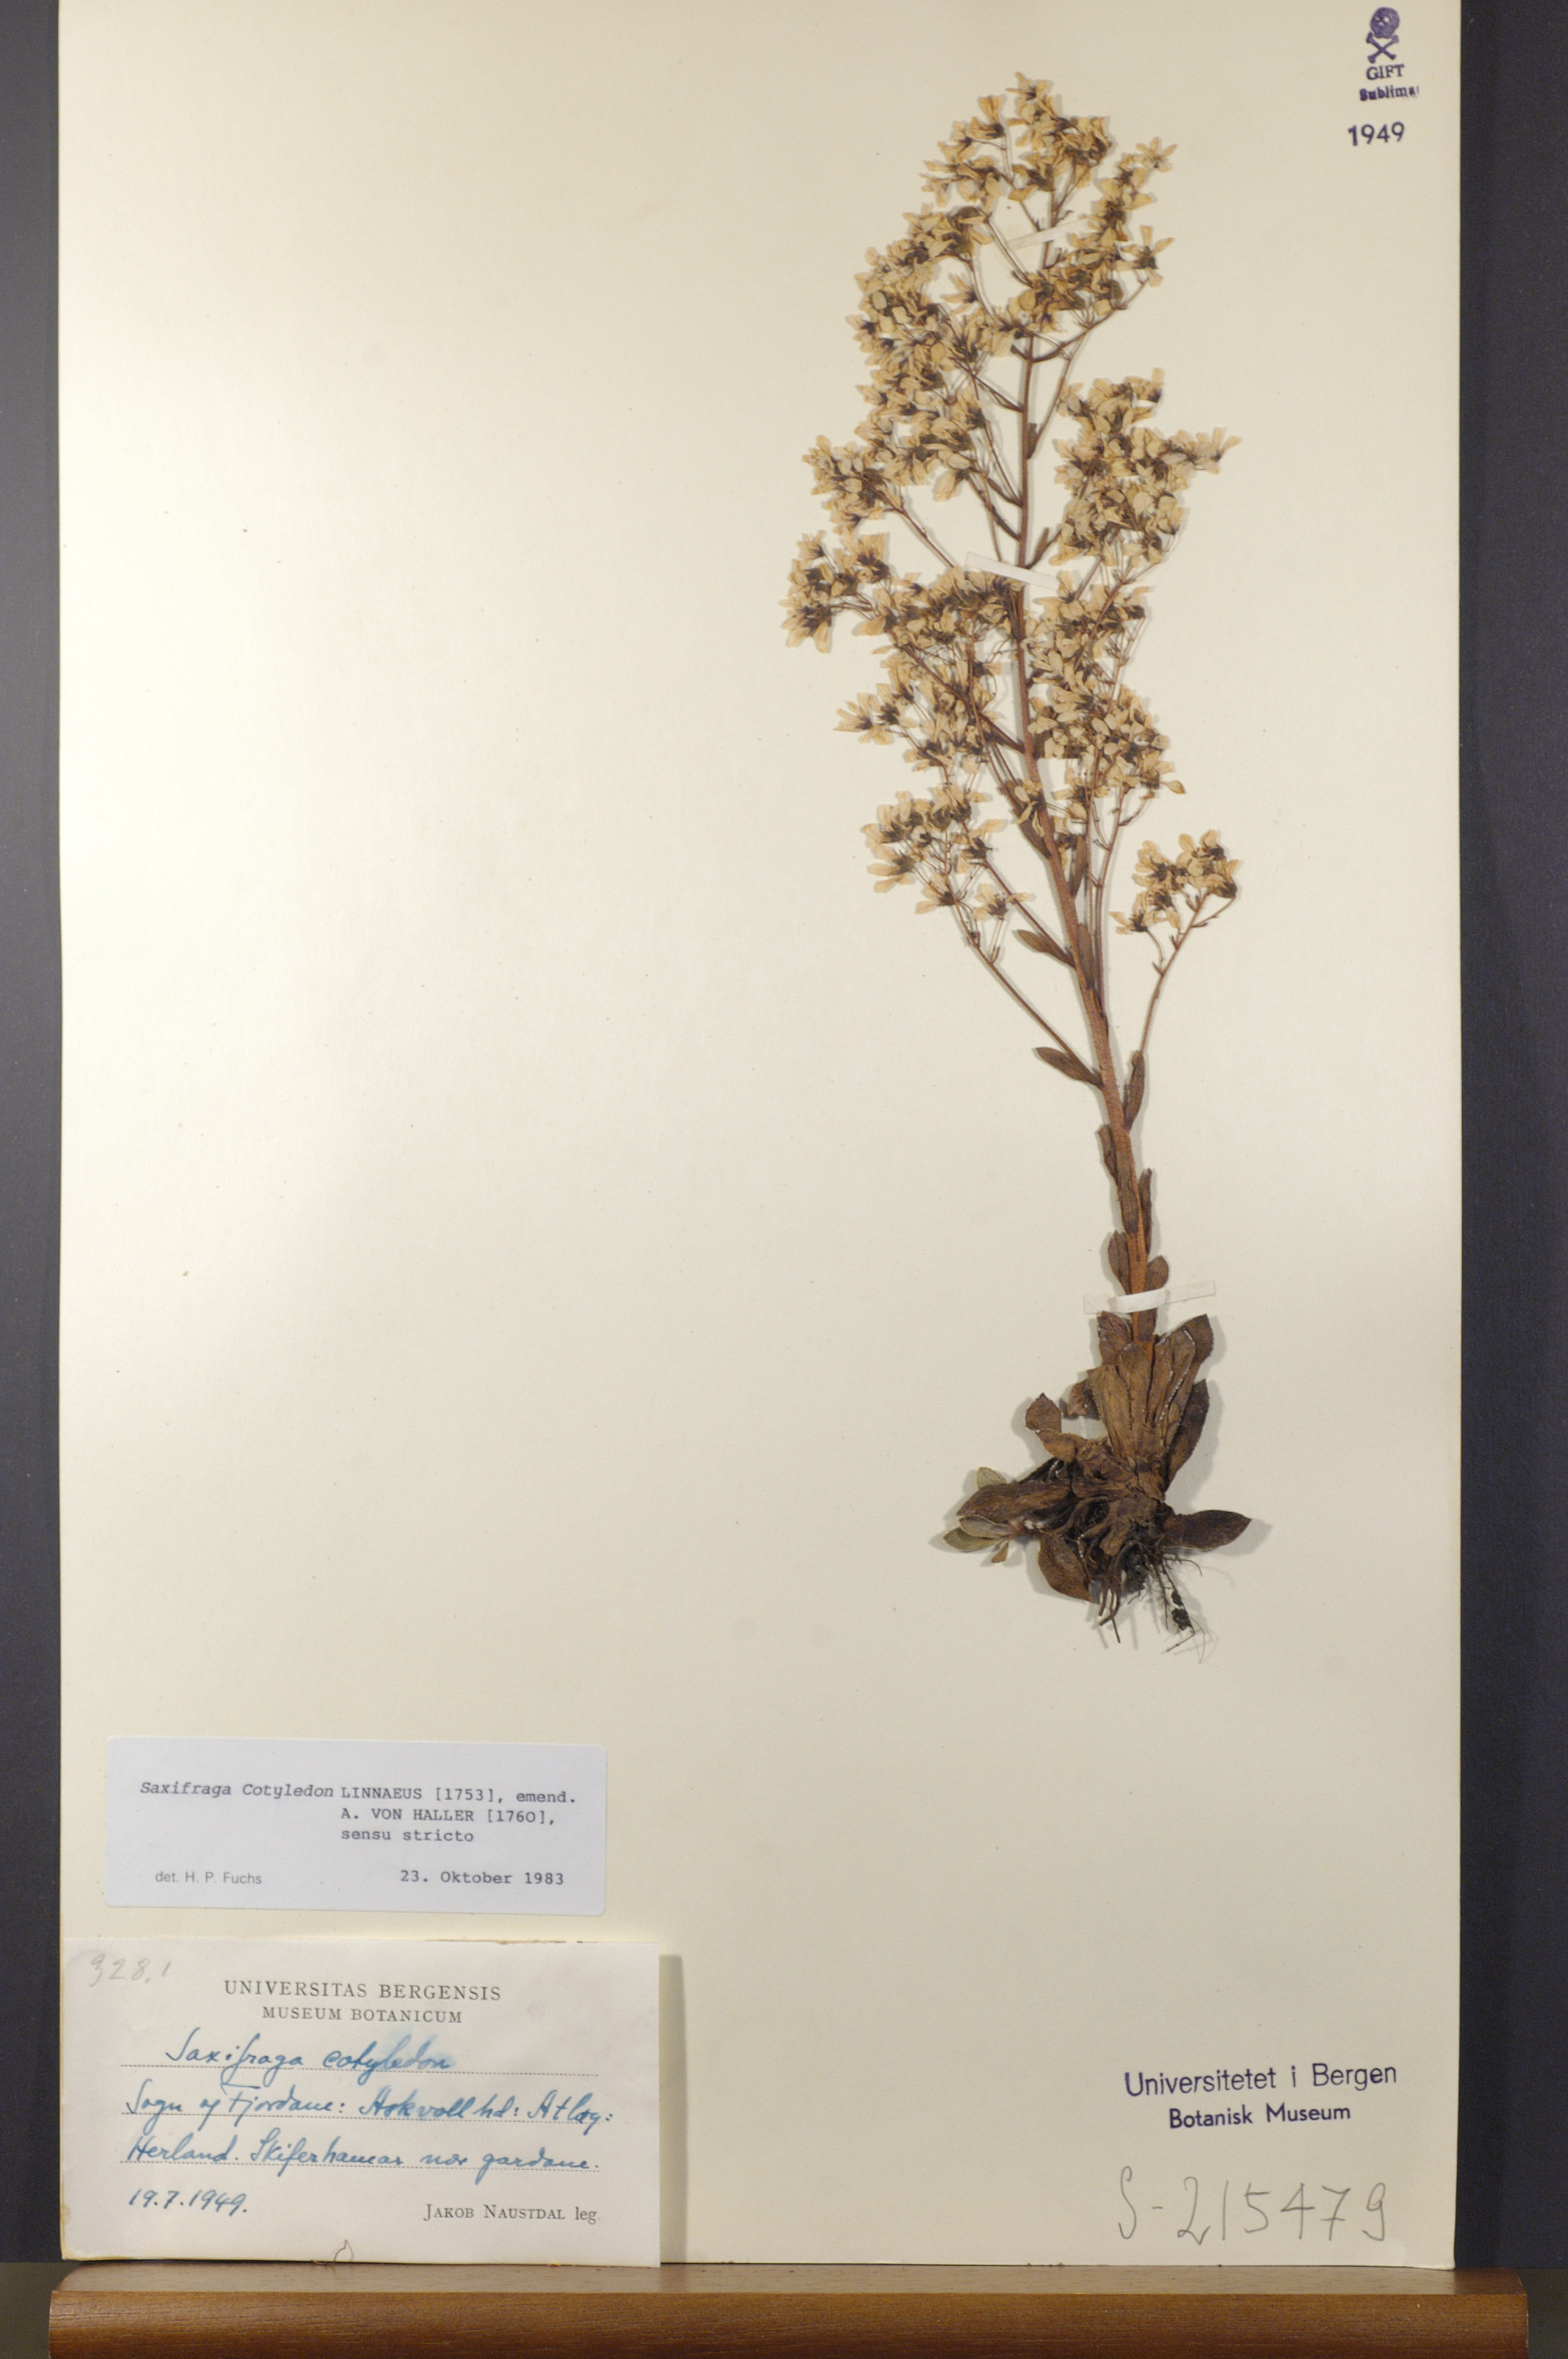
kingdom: Plantae
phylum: Tracheophyta
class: Magnoliopsida
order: Saxifragales
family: Saxifragaceae
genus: Saxifraga
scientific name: Saxifraga cotyledon
